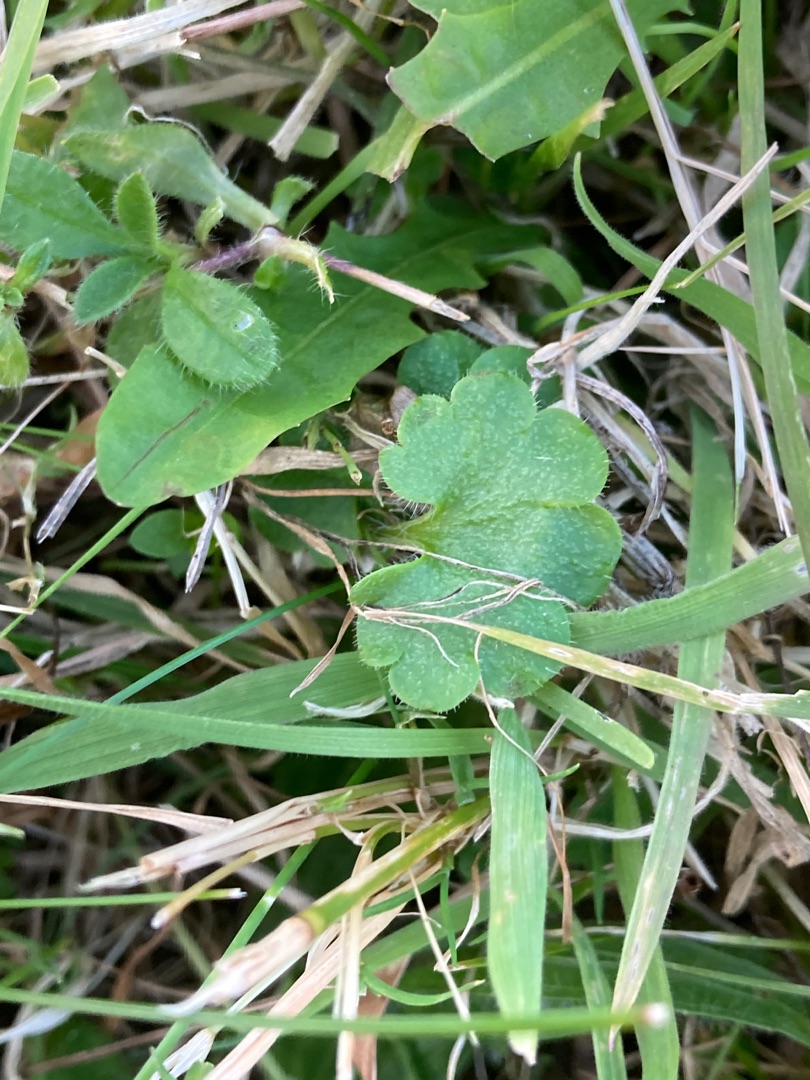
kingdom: Plantae
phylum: Tracheophyta
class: Magnoliopsida
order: Saxifragales
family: Saxifragaceae
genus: Saxifraga
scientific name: Saxifraga granulata
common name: Kornet stenbræk
